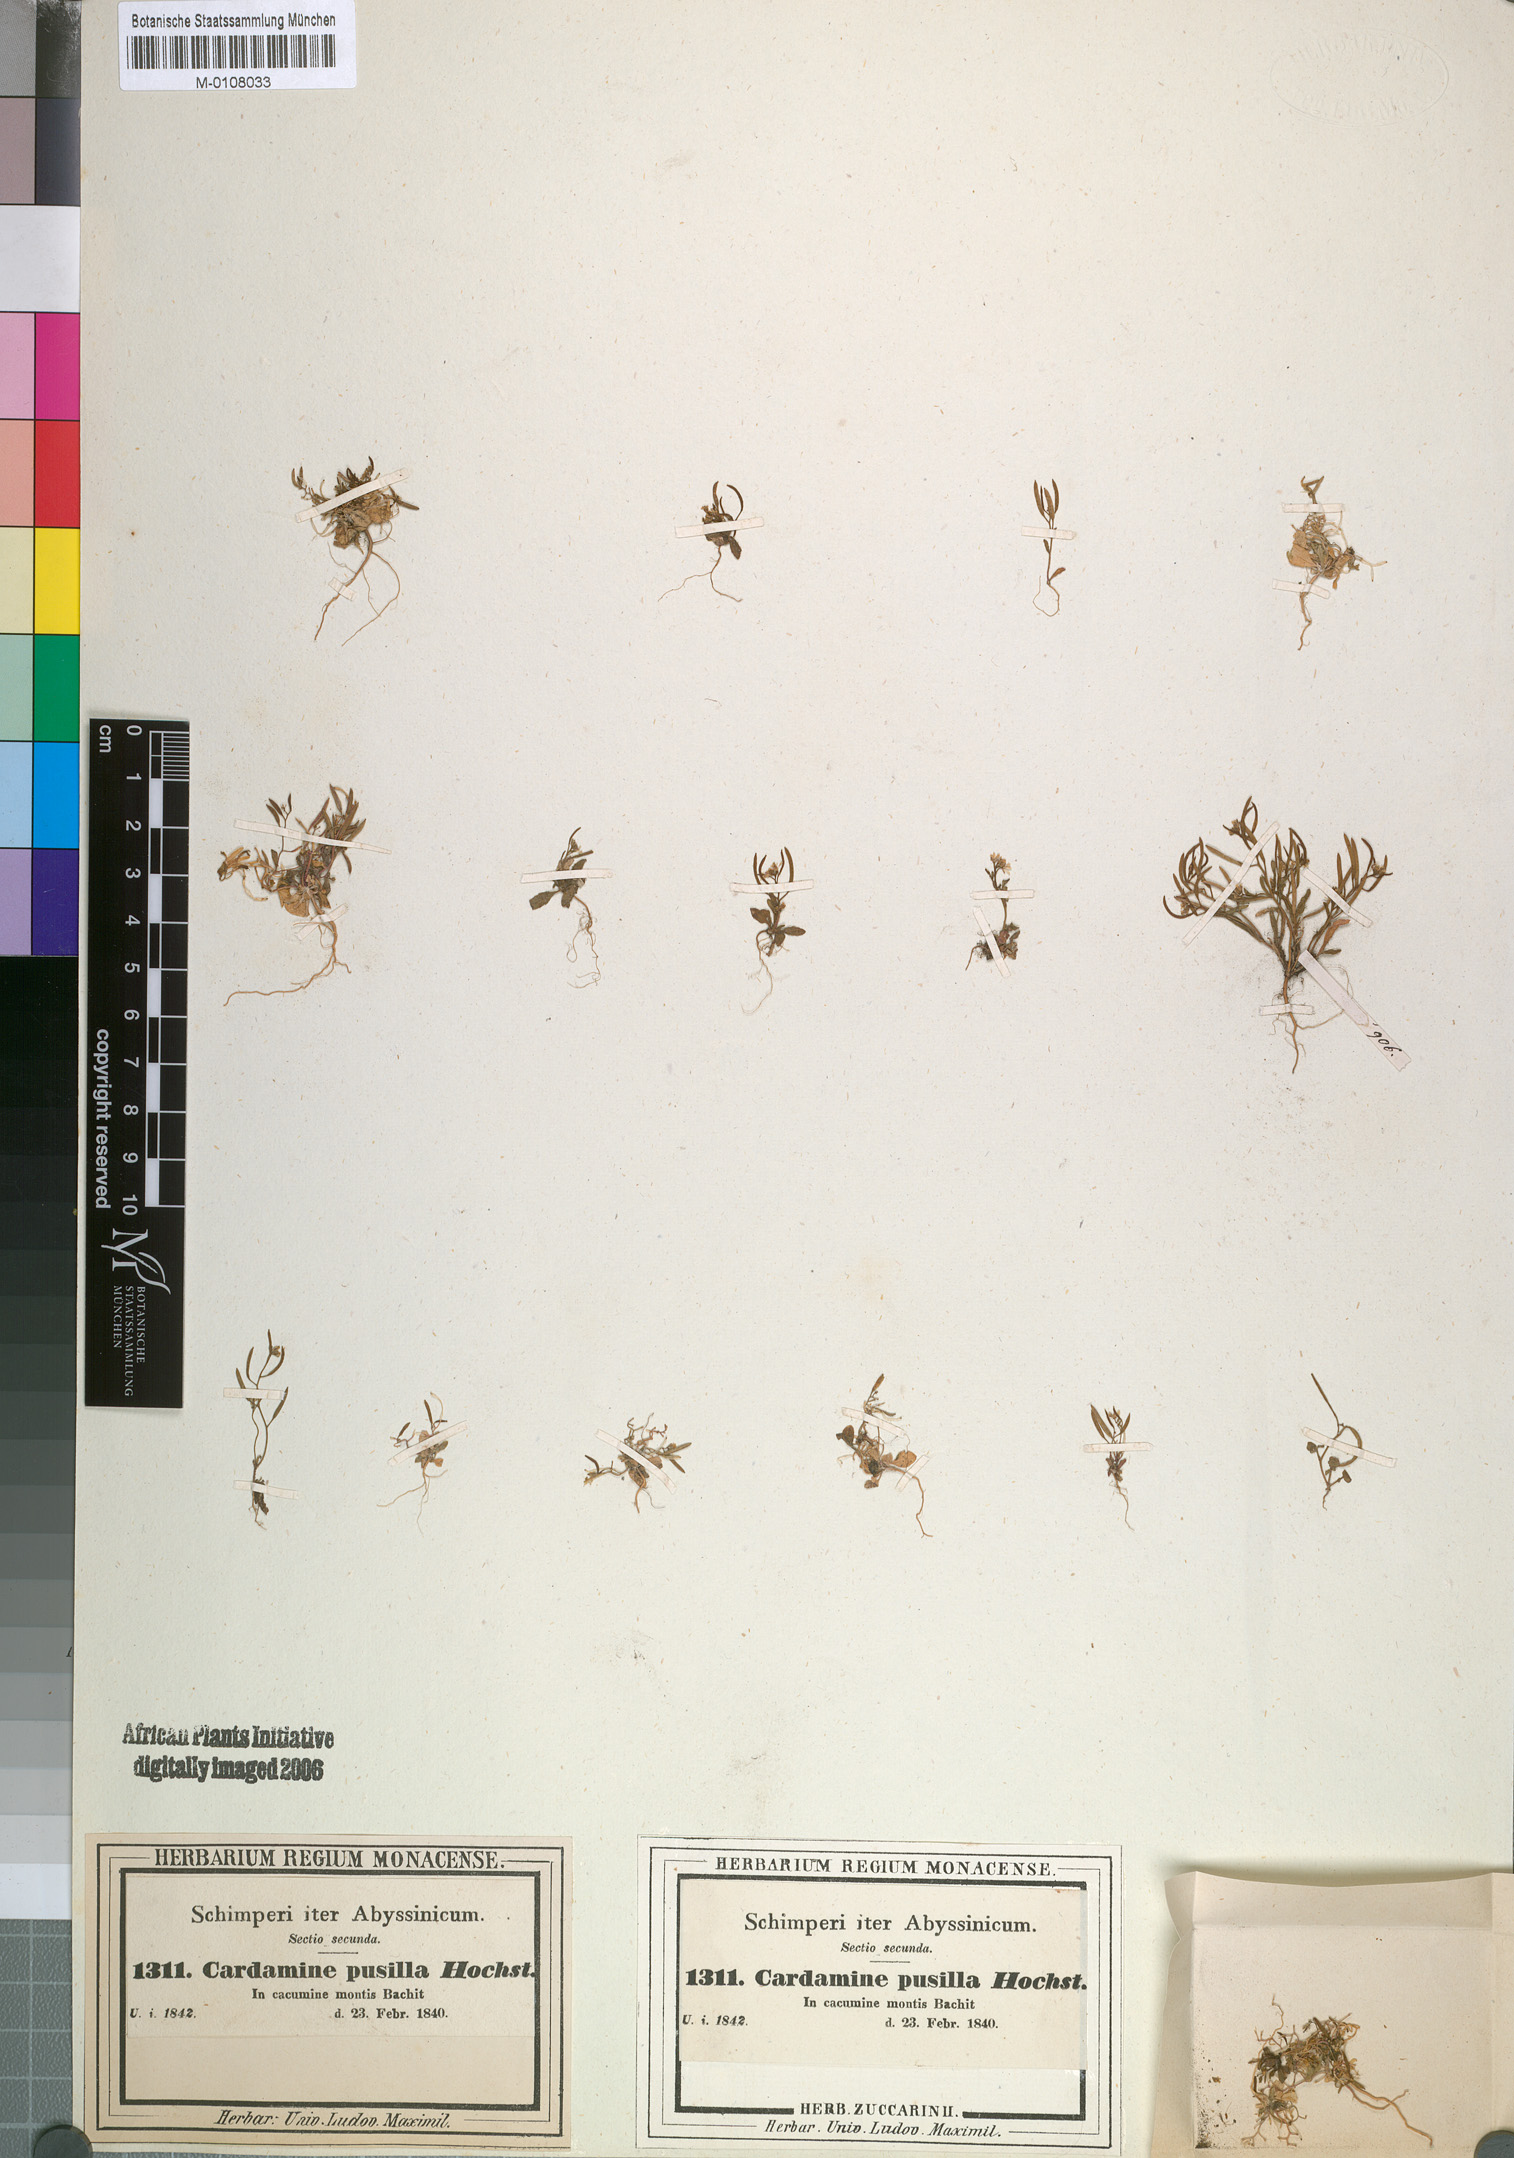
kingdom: Plantae
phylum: Tracheophyta
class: Magnoliopsida
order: Brassicales
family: Brassicaceae
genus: Arabidopsis
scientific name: Arabidopsis thaliana
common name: Thale cress
